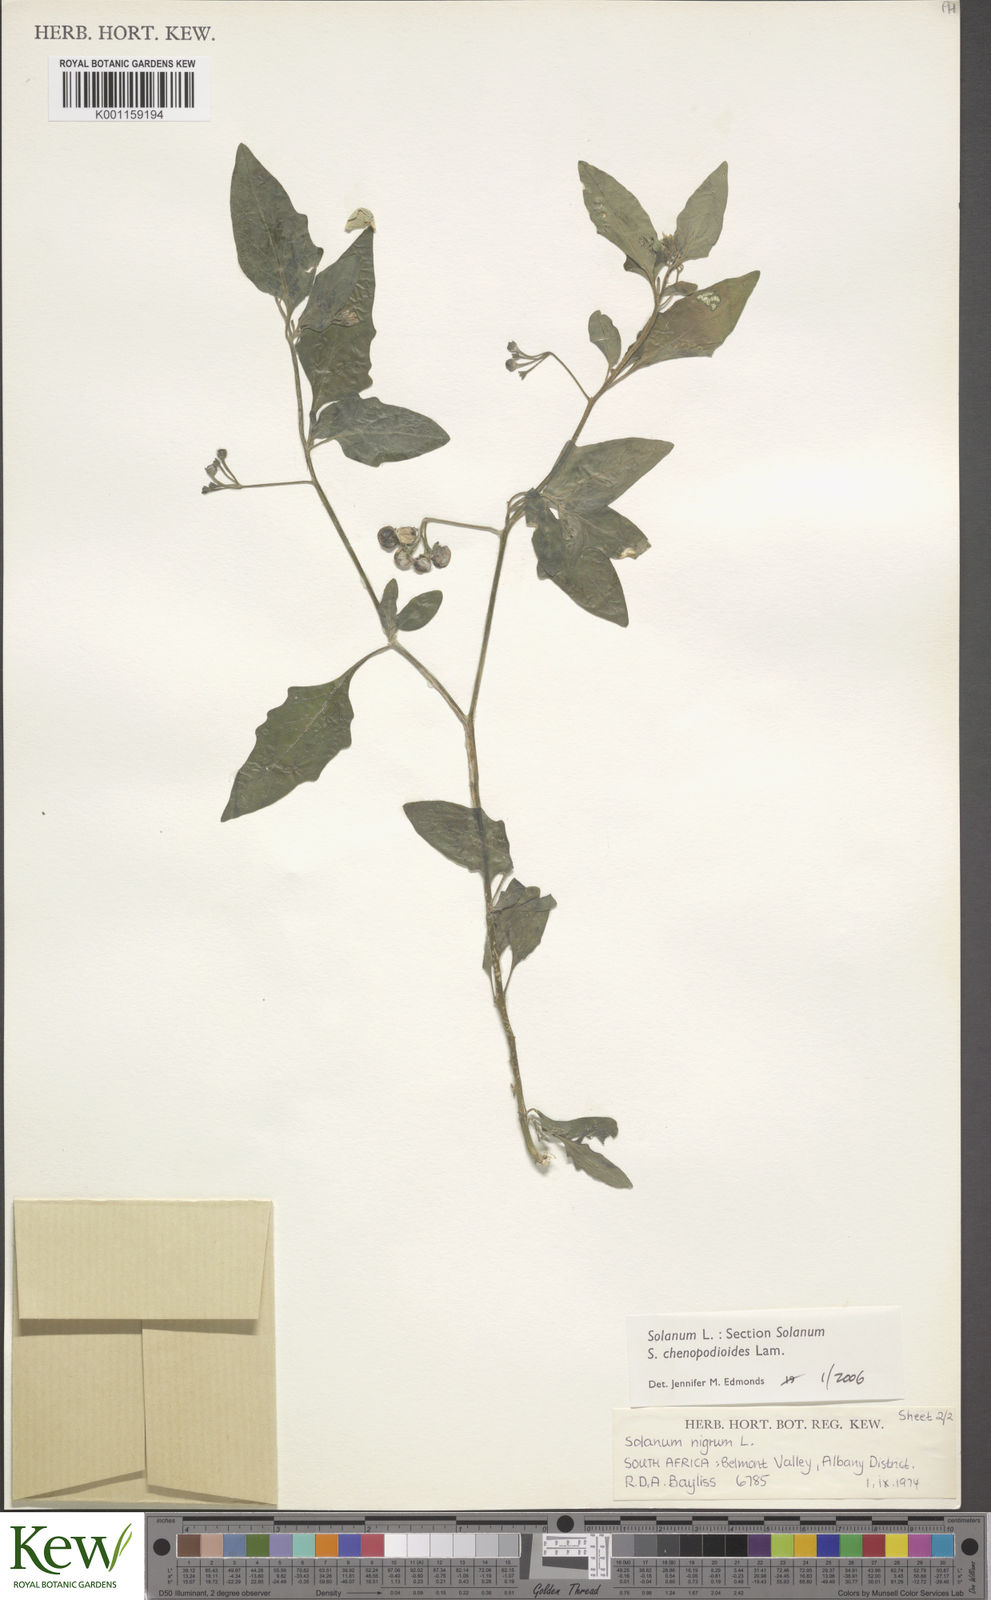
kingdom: Plantae
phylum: Tracheophyta
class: Magnoliopsida
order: Solanales
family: Solanaceae
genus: Solanum
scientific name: Solanum chenopodioides
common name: Tall nightshade
